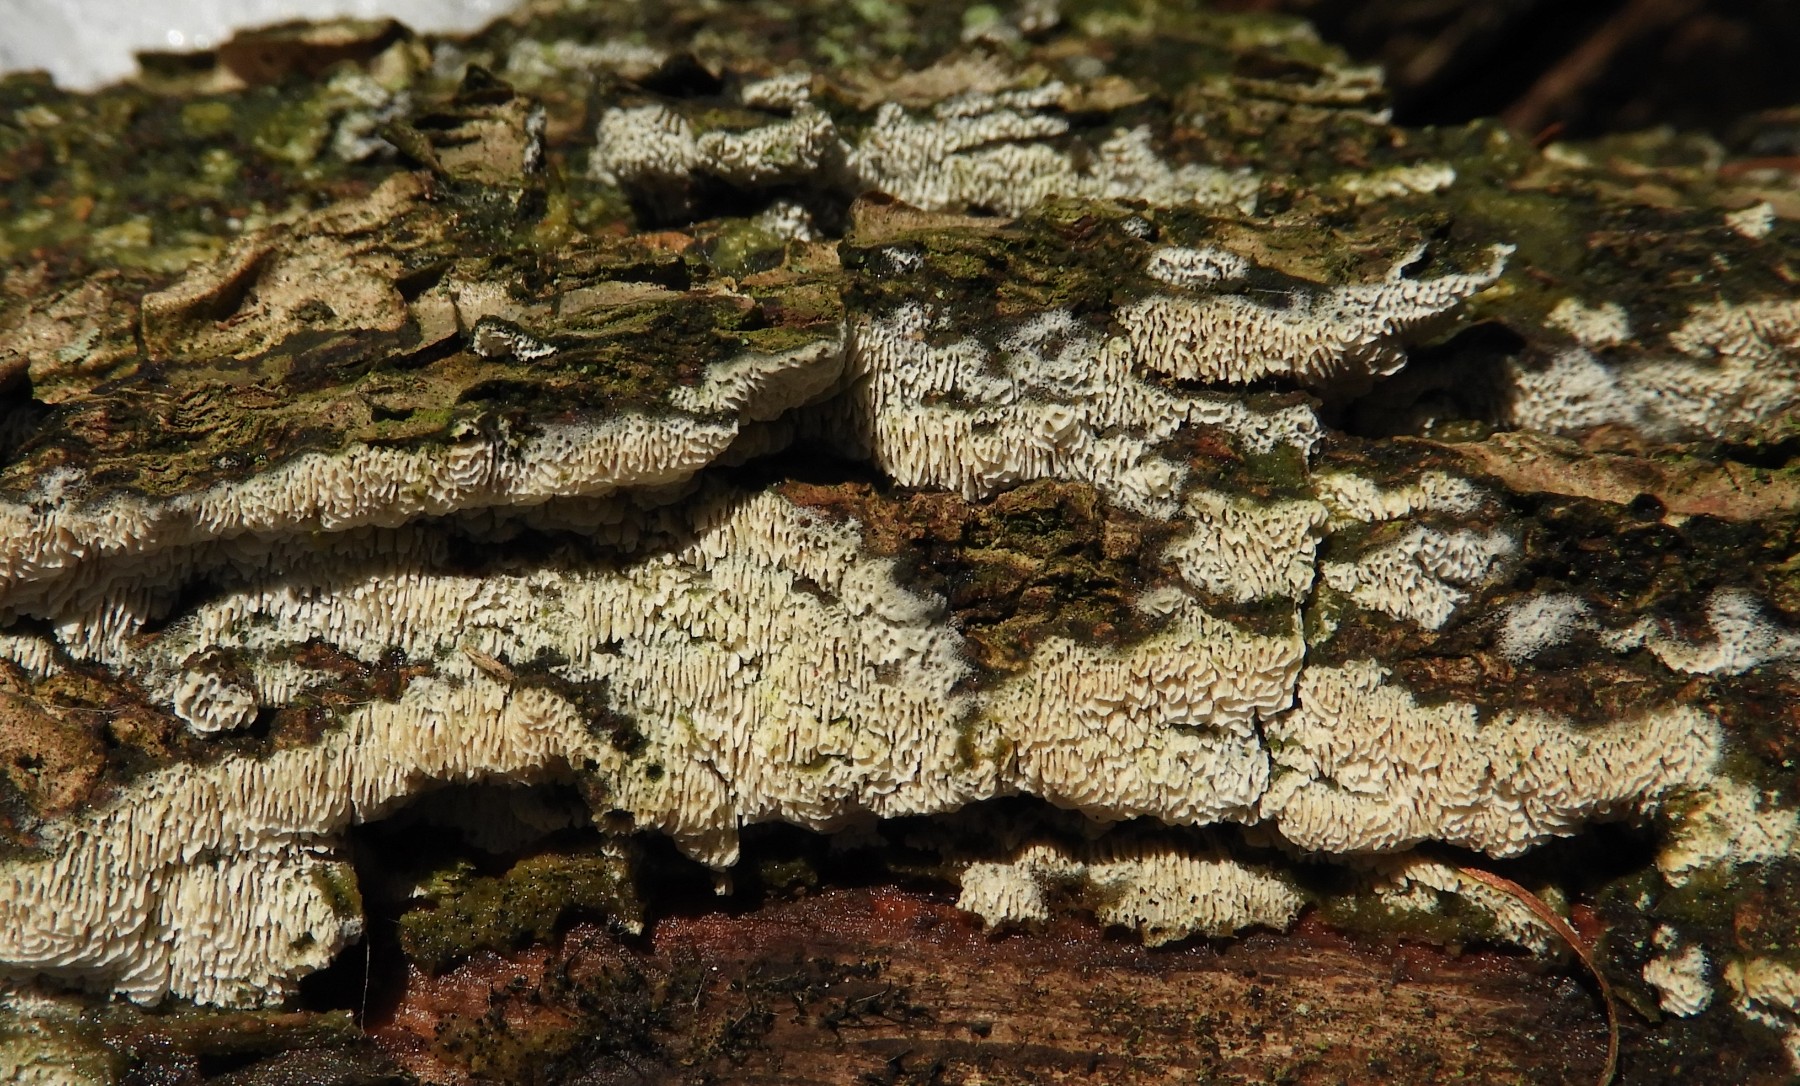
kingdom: Fungi
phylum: Basidiomycota
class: Agaricomycetes
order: Hymenochaetales
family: Schizoporaceae
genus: Xylodon
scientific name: Xylodon
